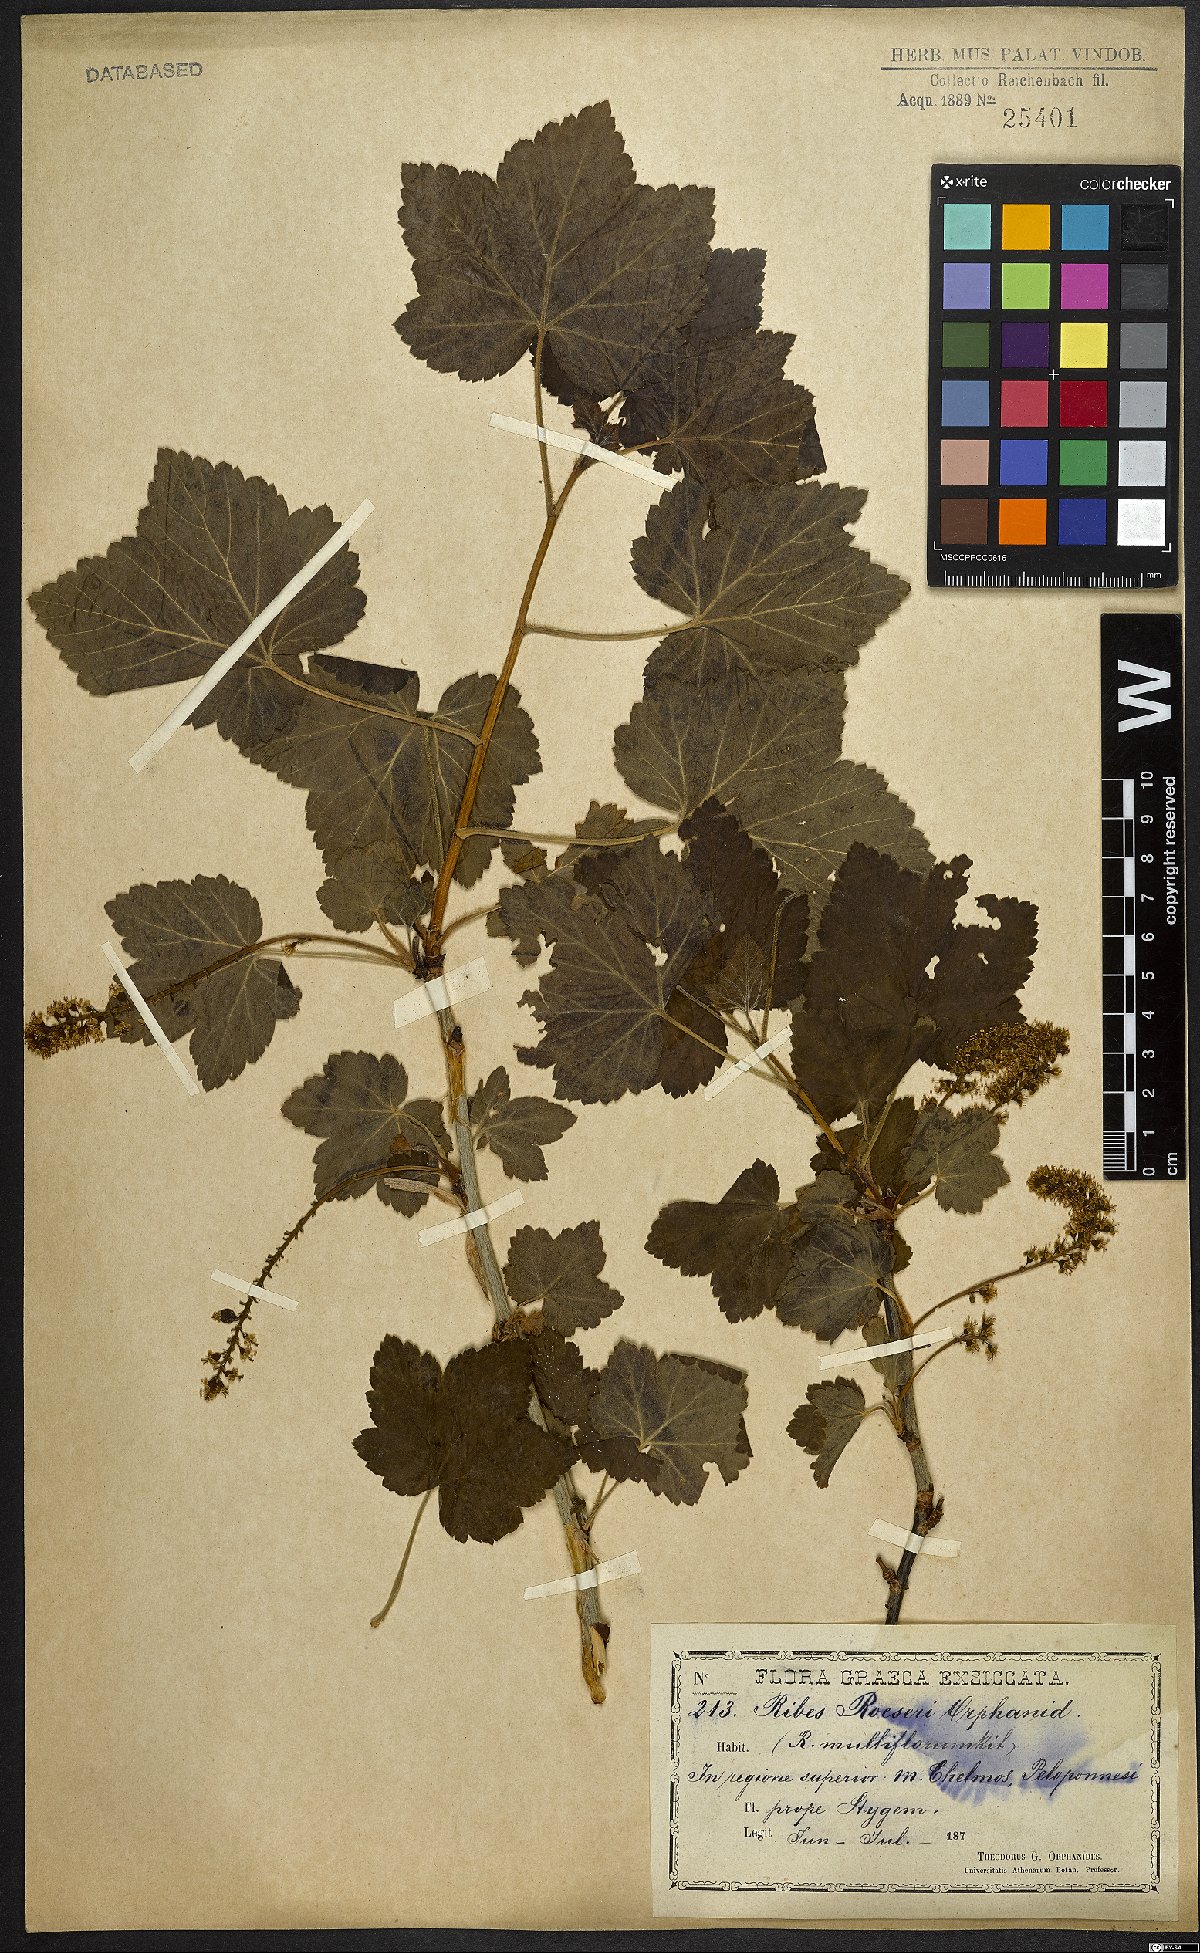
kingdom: Plantae
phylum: Tracheophyta
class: Magnoliopsida
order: Saxifragales
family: Grossulariaceae
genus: Ribes
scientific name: Ribes multiflorum
